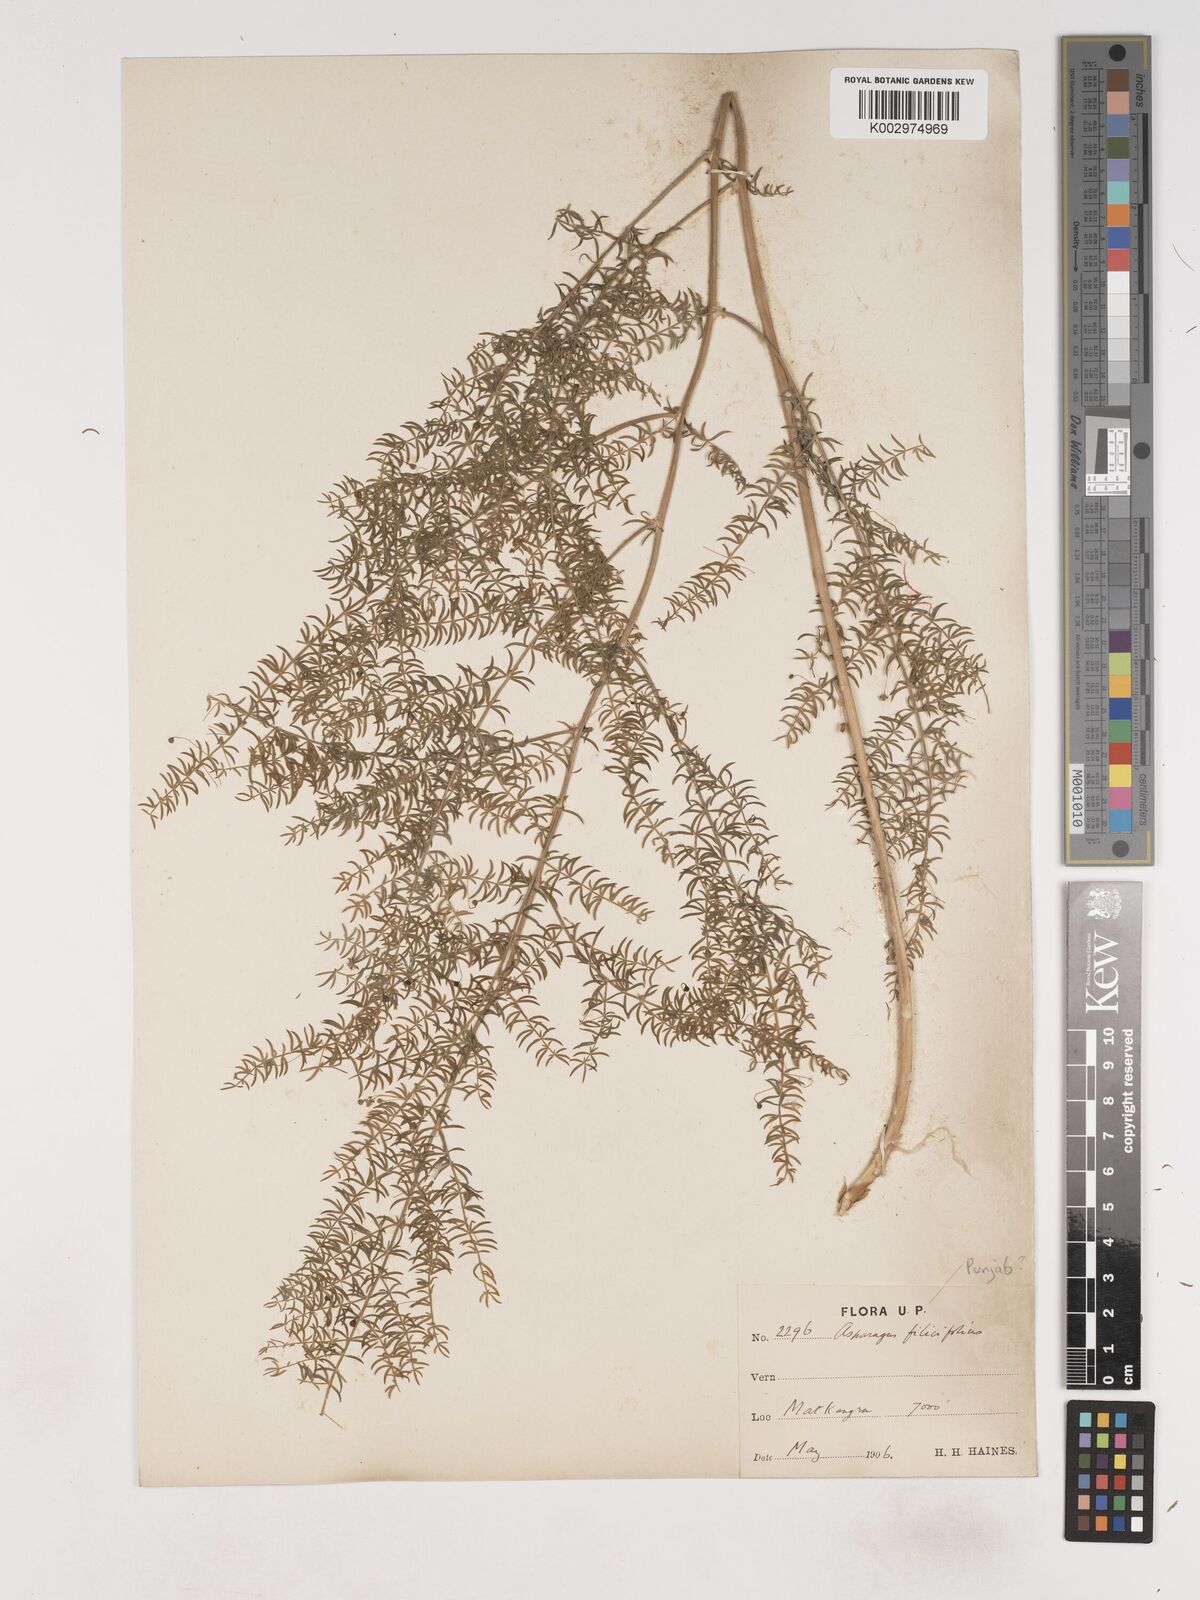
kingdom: Plantae
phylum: Tracheophyta
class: Liliopsida
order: Asparagales
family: Asparagaceae
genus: Asparagus
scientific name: Asparagus filicinus
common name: Fern asparagus
